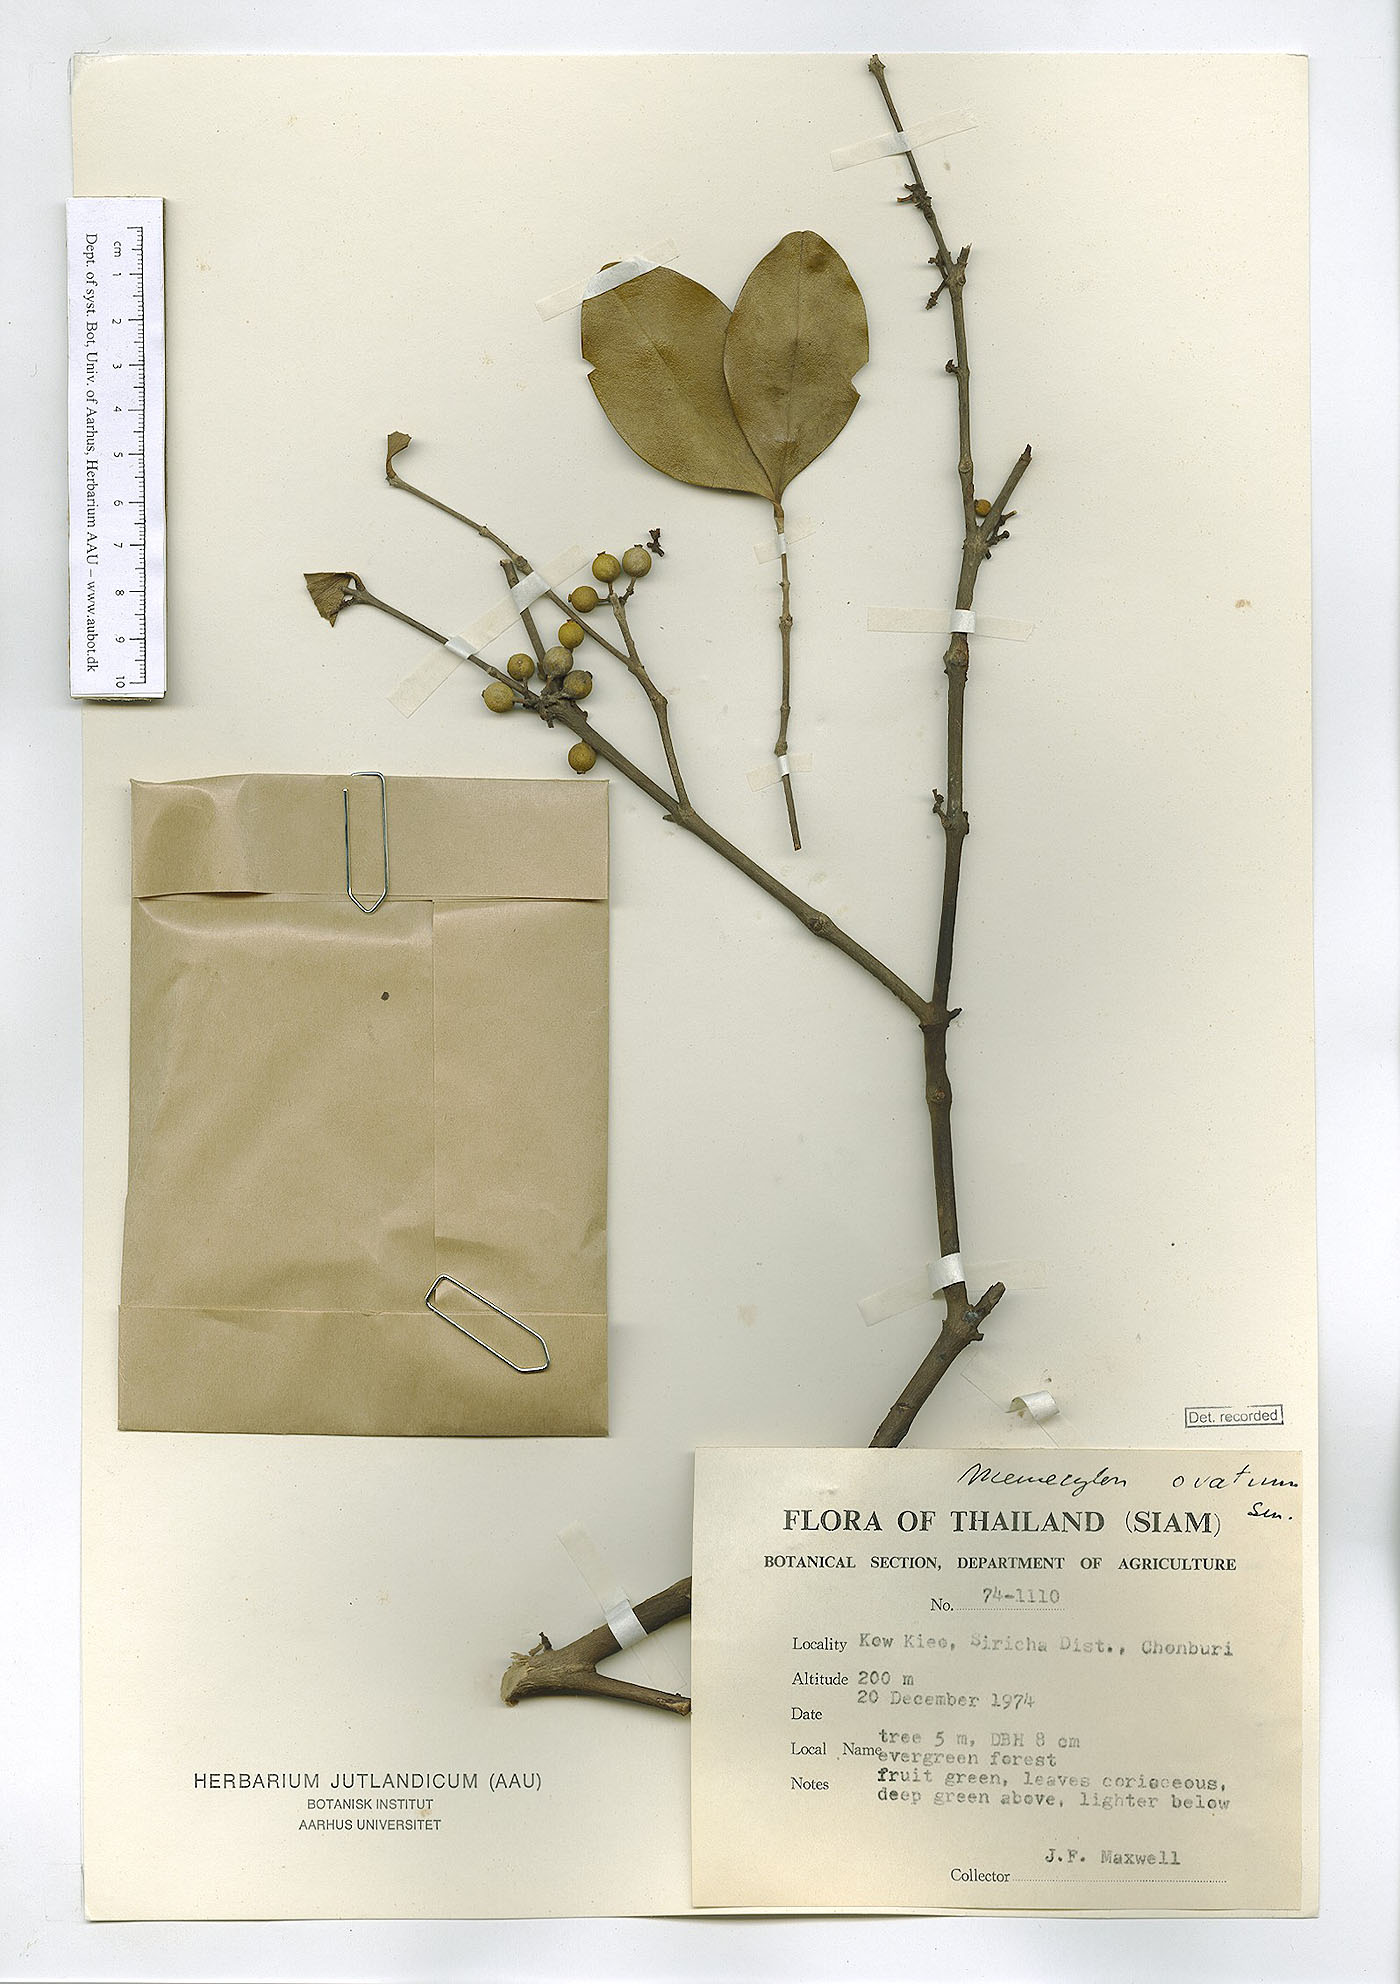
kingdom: Plantae
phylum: Tracheophyta
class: Magnoliopsida
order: Myrtales
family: Melastomataceae
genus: Memecylon
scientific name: Memecylon edule
